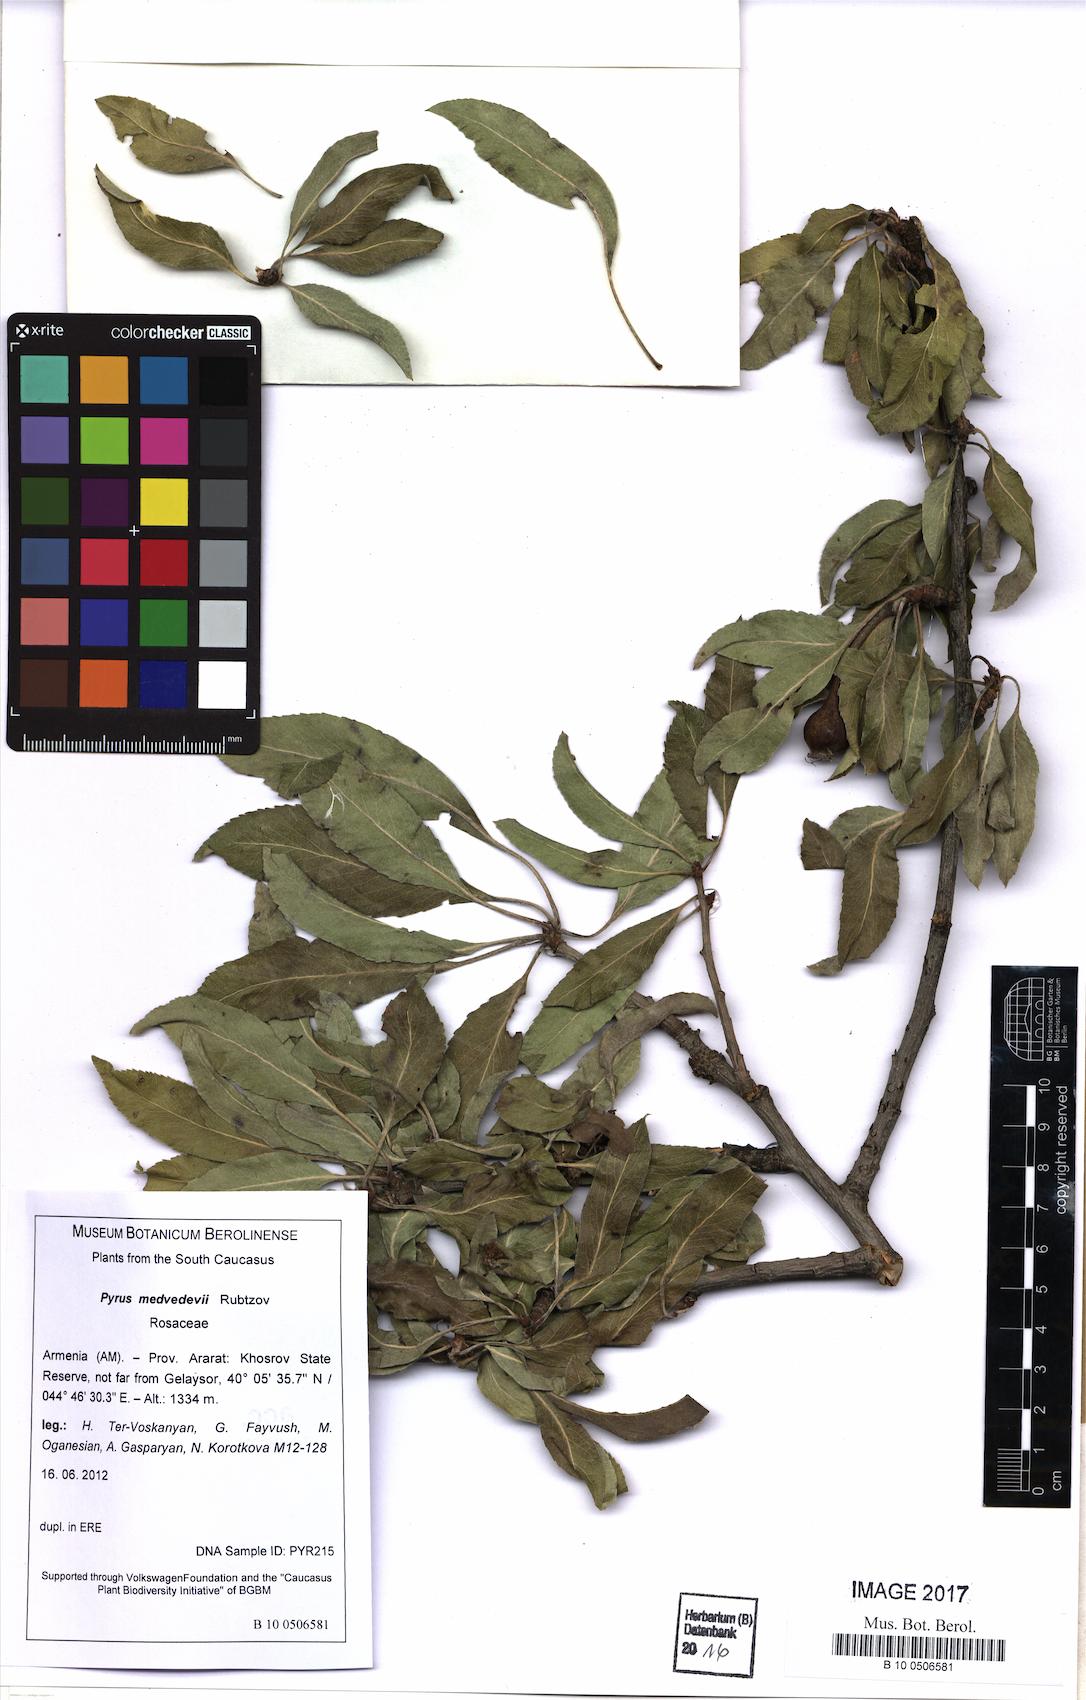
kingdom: Plantae
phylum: Tracheophyta
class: Magnoliopsida
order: Rosales
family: Rosaceae
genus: Pyrus
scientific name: Pyrus zangezura
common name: Zangezurian pear
